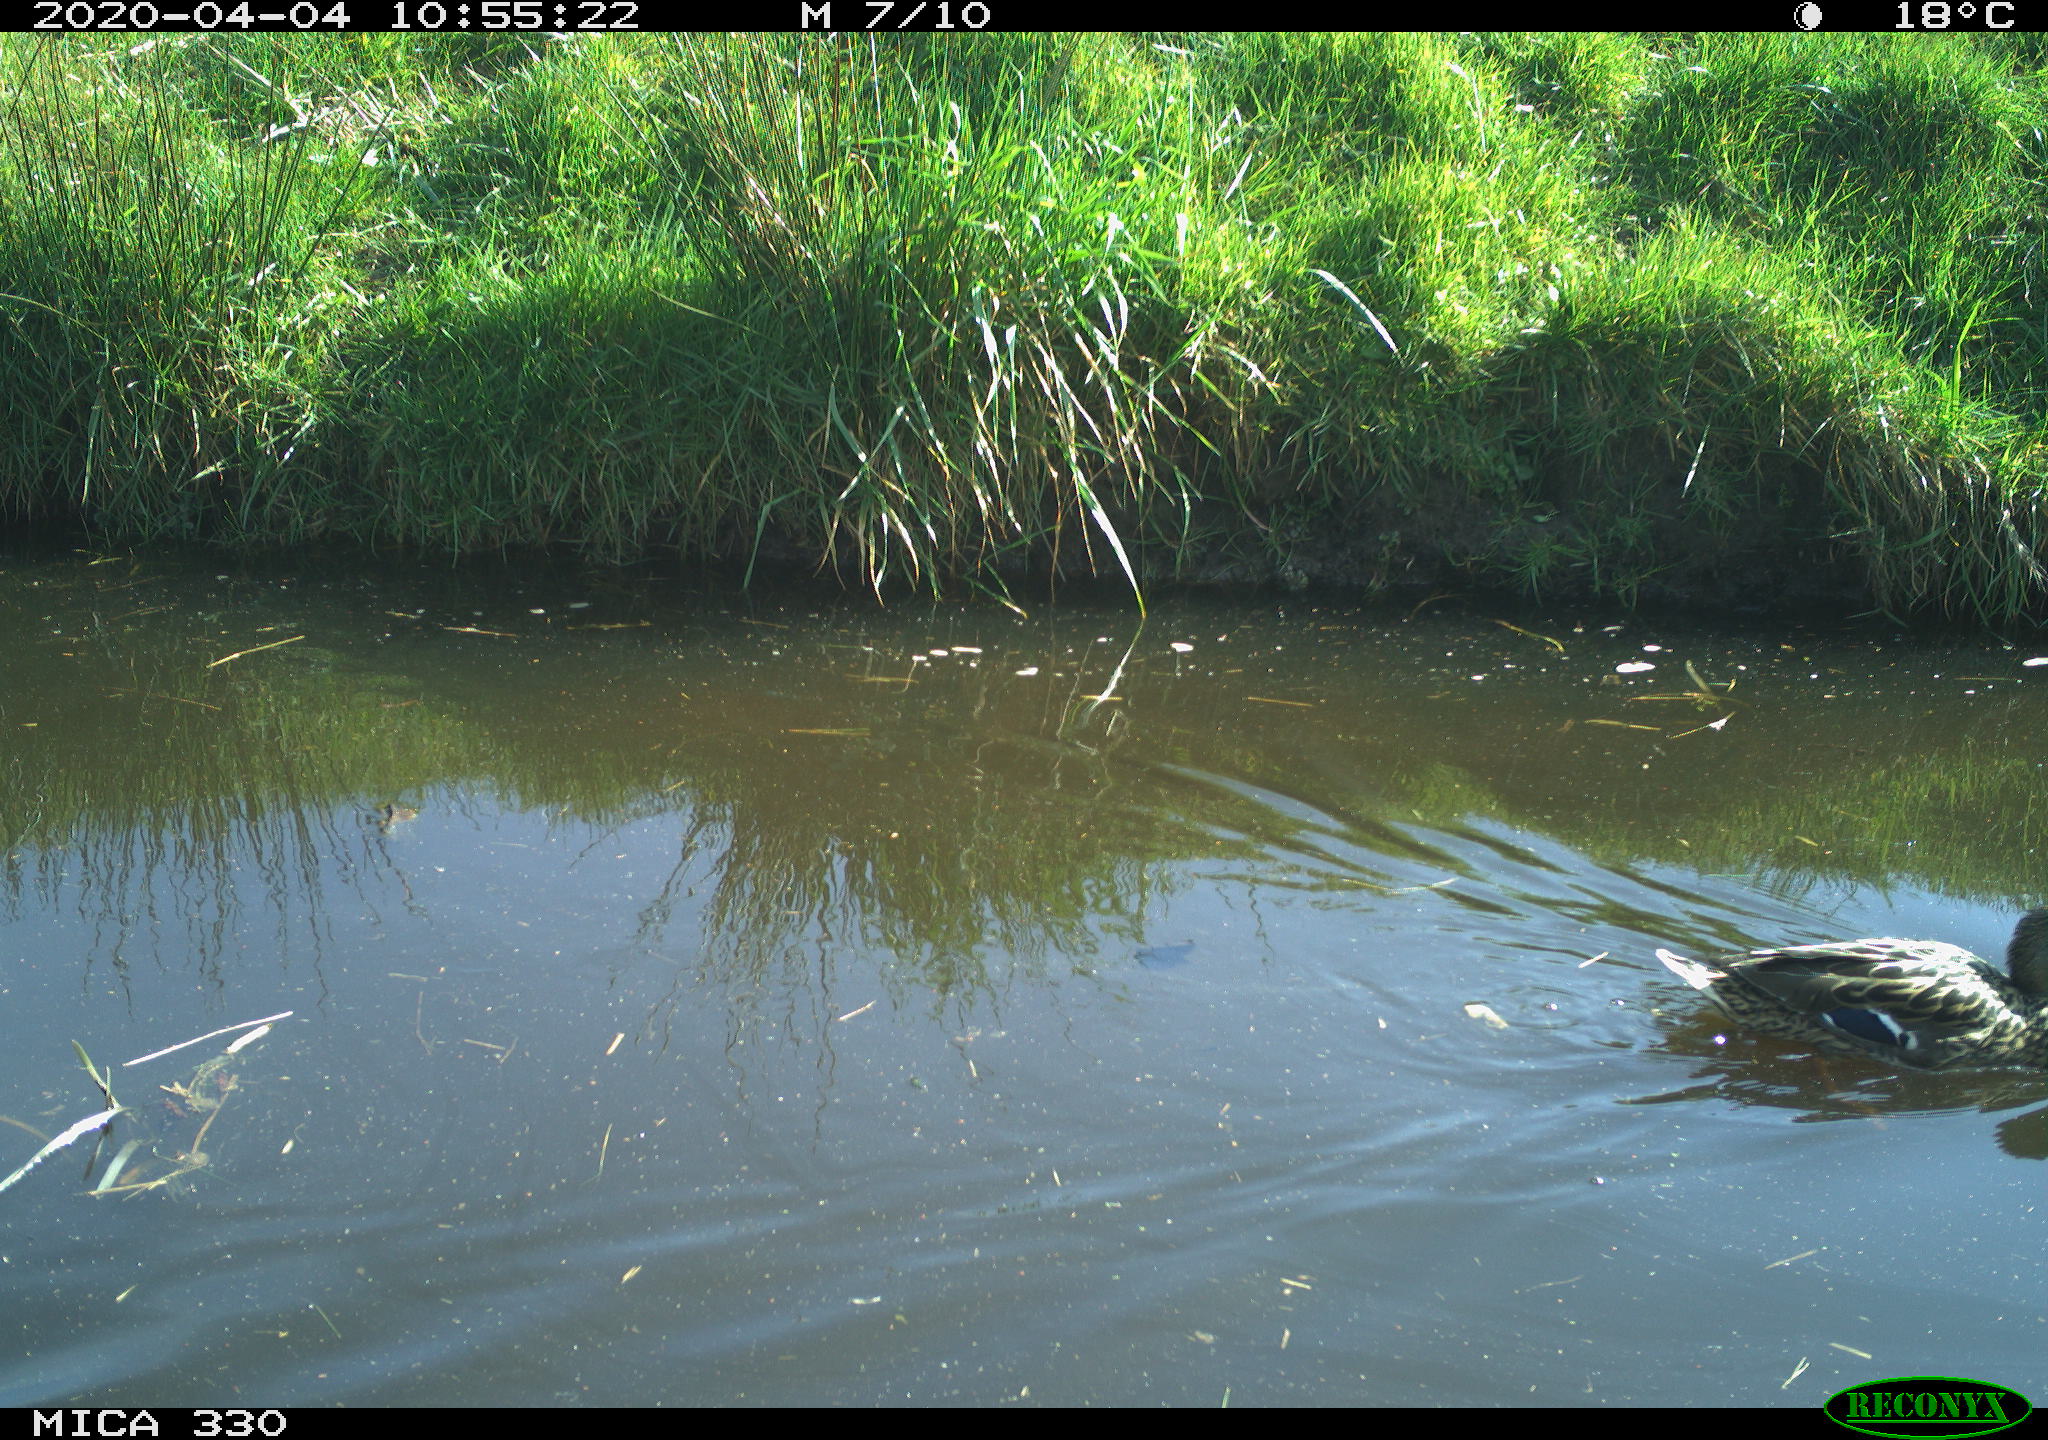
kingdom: Animalia
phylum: Chordata
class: Aves
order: Anseriformes
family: Anatidae
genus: Mareca
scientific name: Mareca strepera
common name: Gadwall
